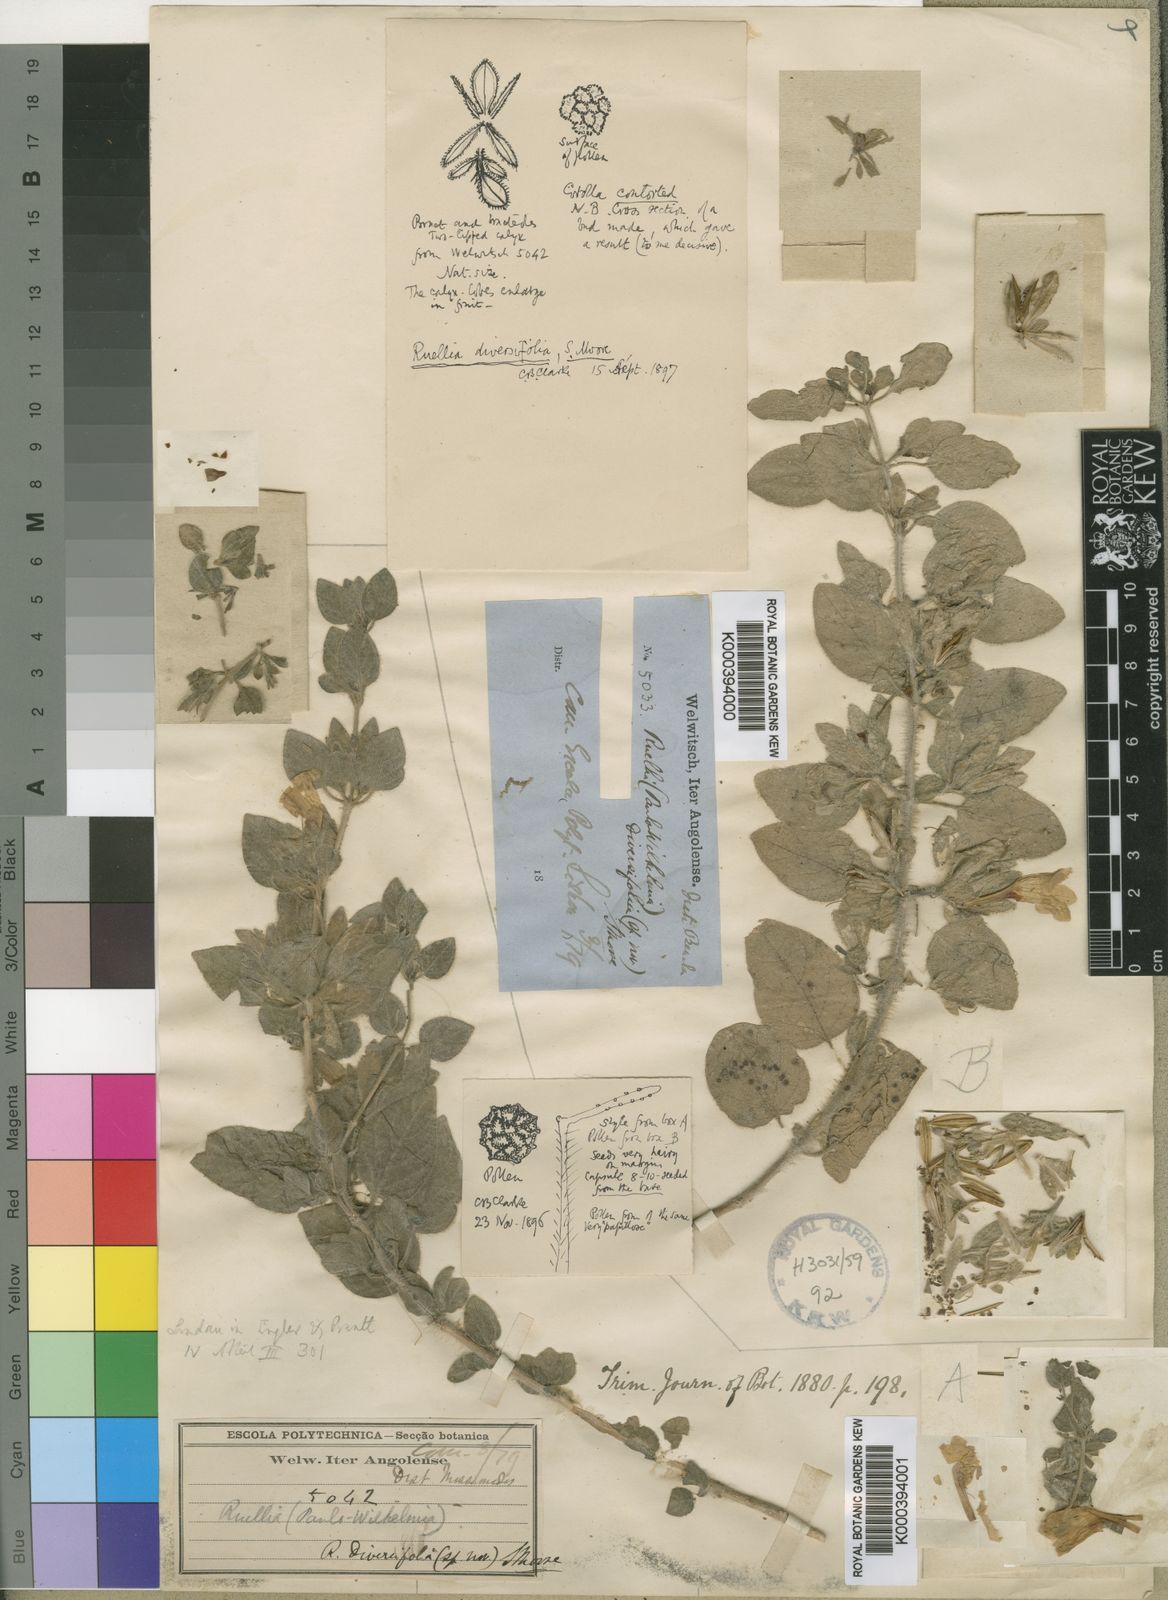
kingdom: Plantae
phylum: Tracheophyta
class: Magnoliopsida
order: Lamiales
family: Acanthaceae
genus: Dinteracanthus
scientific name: Dinteracanthus diversifolius
